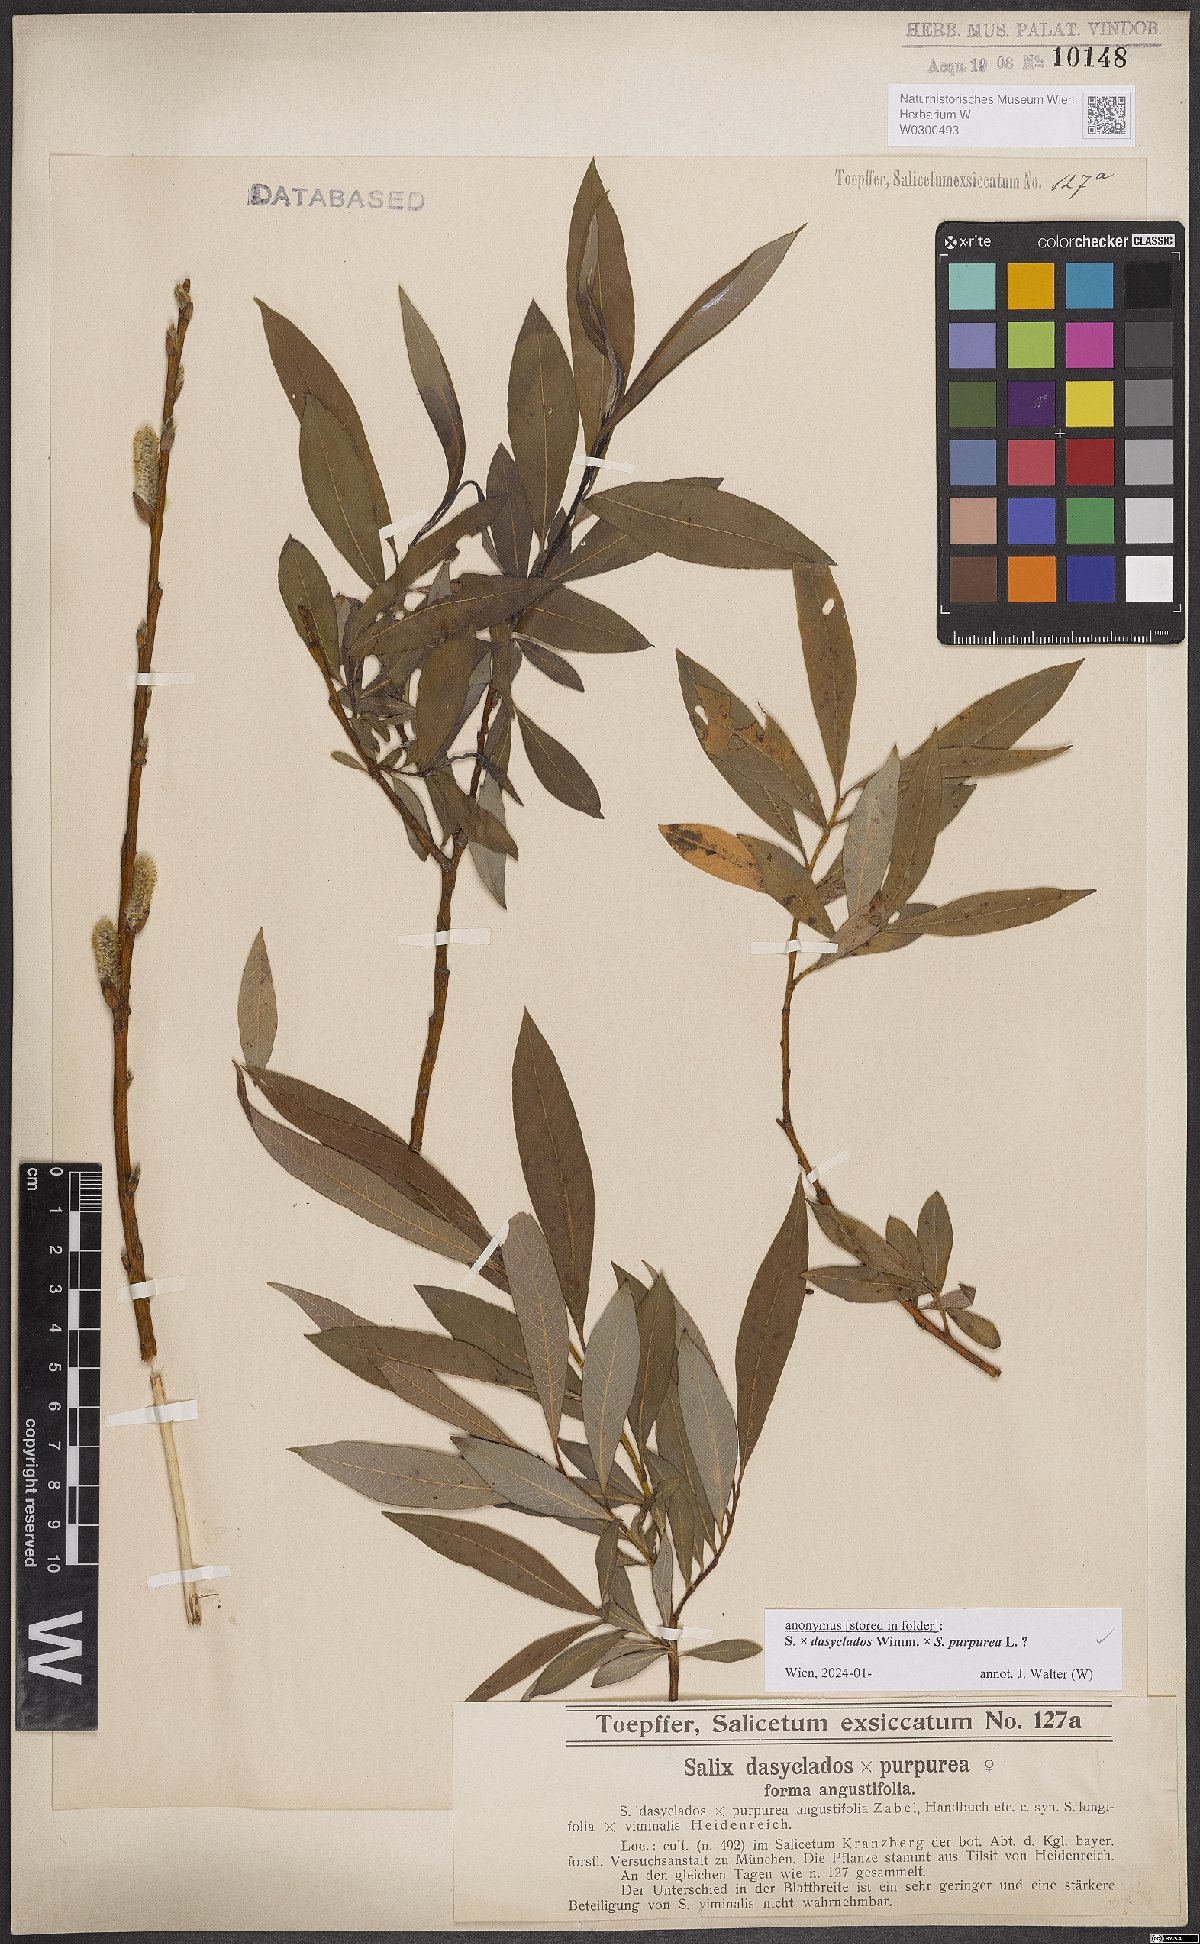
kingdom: Plantae
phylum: Tracheophyta
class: Magnoliopsida
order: Malpighiales
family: Salicaceae
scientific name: Salicaceae
